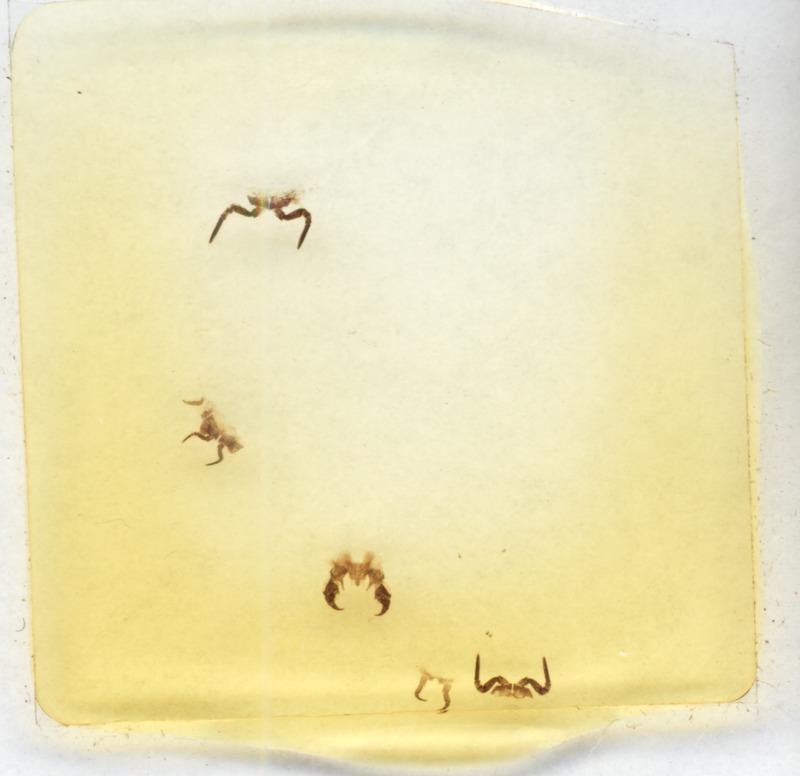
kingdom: Animalia
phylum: Arthropoda
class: Diplopoda
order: Glomerida
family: Glomeridae
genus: Glomeris
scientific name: Glomeris dorsosanguine
